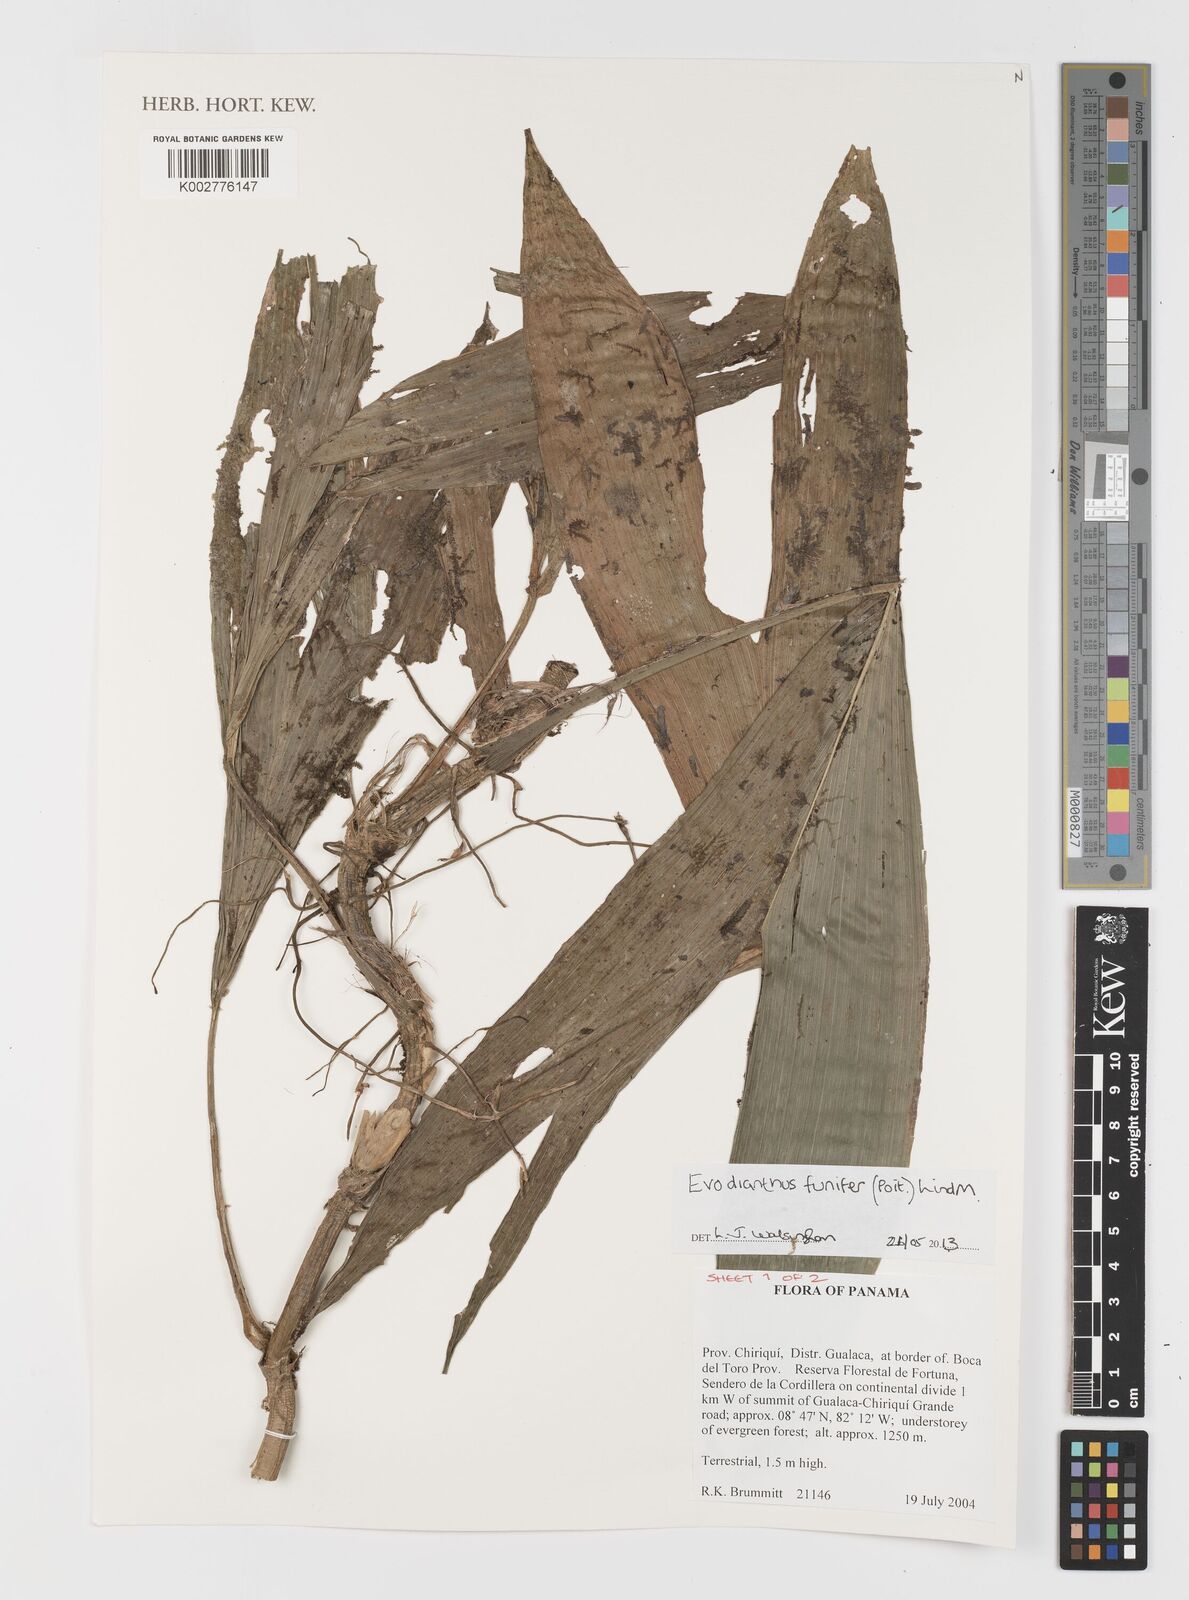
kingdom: Plantae
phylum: Tracheophyta
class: Liliopsida
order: Pandanales
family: Cyclanthaceae
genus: Evodianthus
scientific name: Evodianthus funifer
